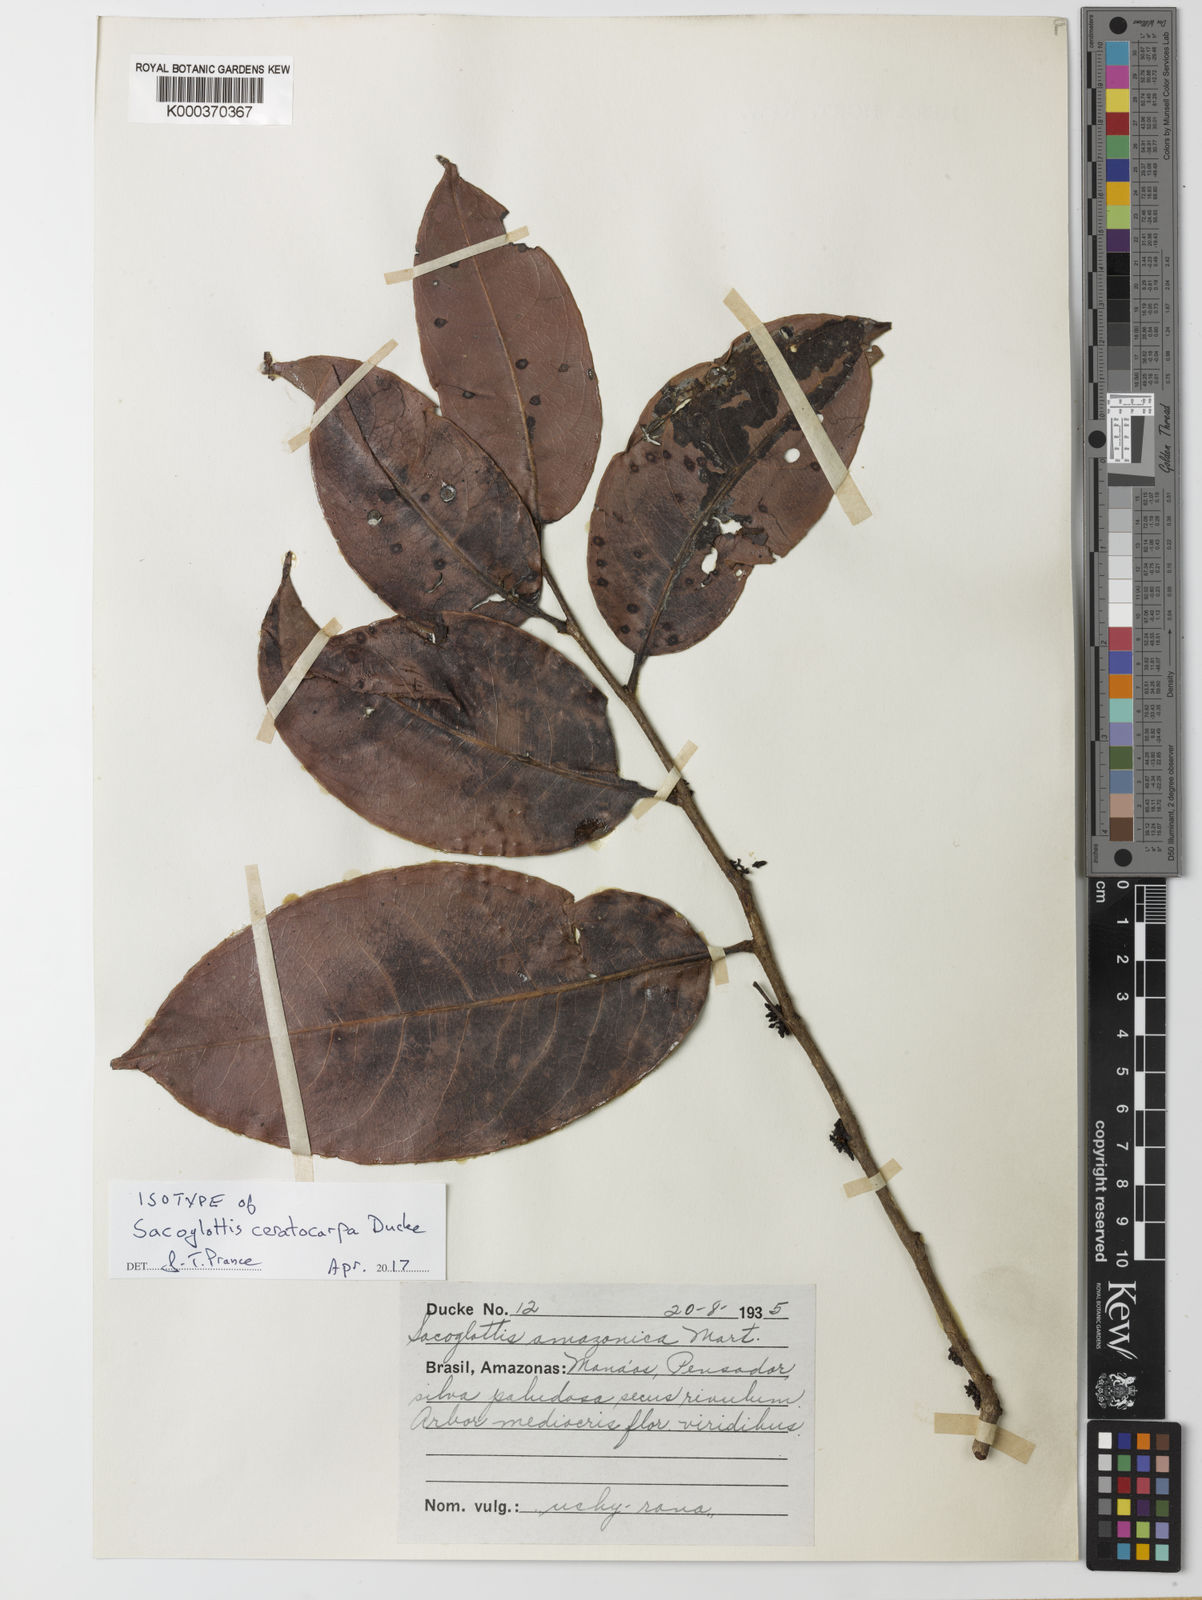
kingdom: Plantae
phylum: Tracheophyta
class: Magnoliopsida
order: Malpighiales
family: Humiriaceae
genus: Sacoglottis
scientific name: Sacoglottis ceratocarpa
